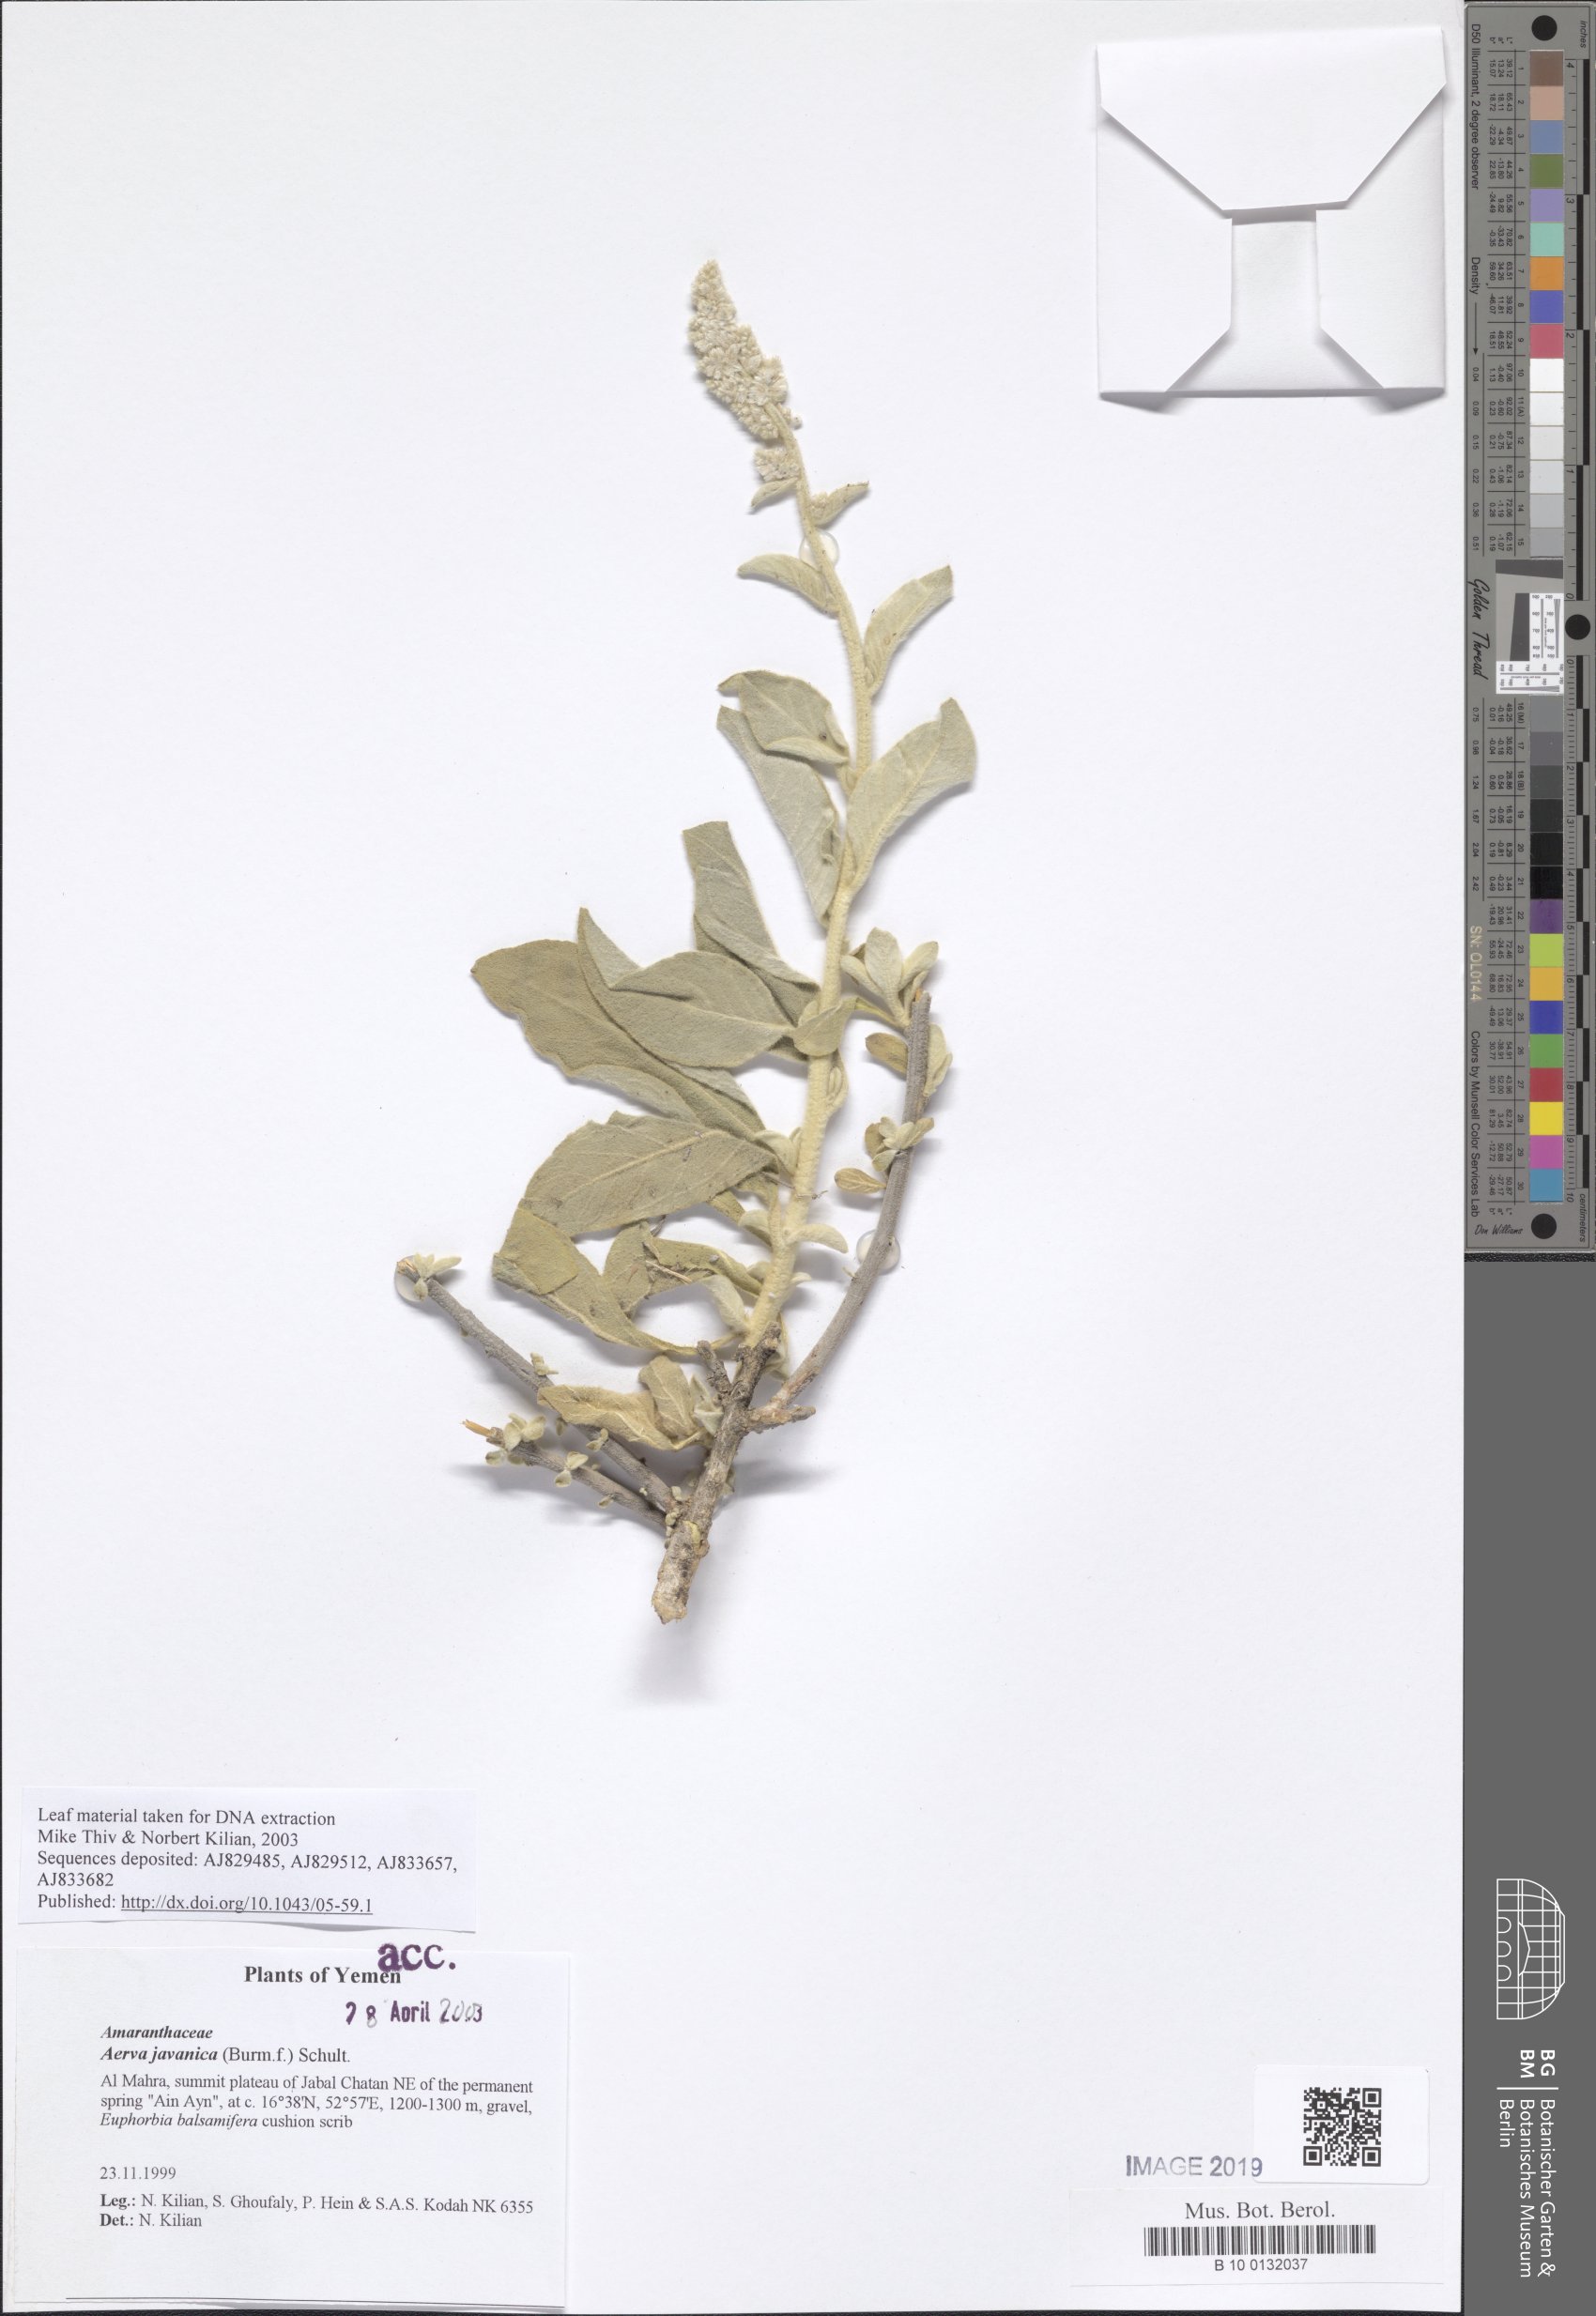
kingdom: Plantae
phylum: Tracheophyta
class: Magnoliopsida
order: Caryophyllales
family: Amaranthaceae
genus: Aerva
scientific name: Aerva javanica
